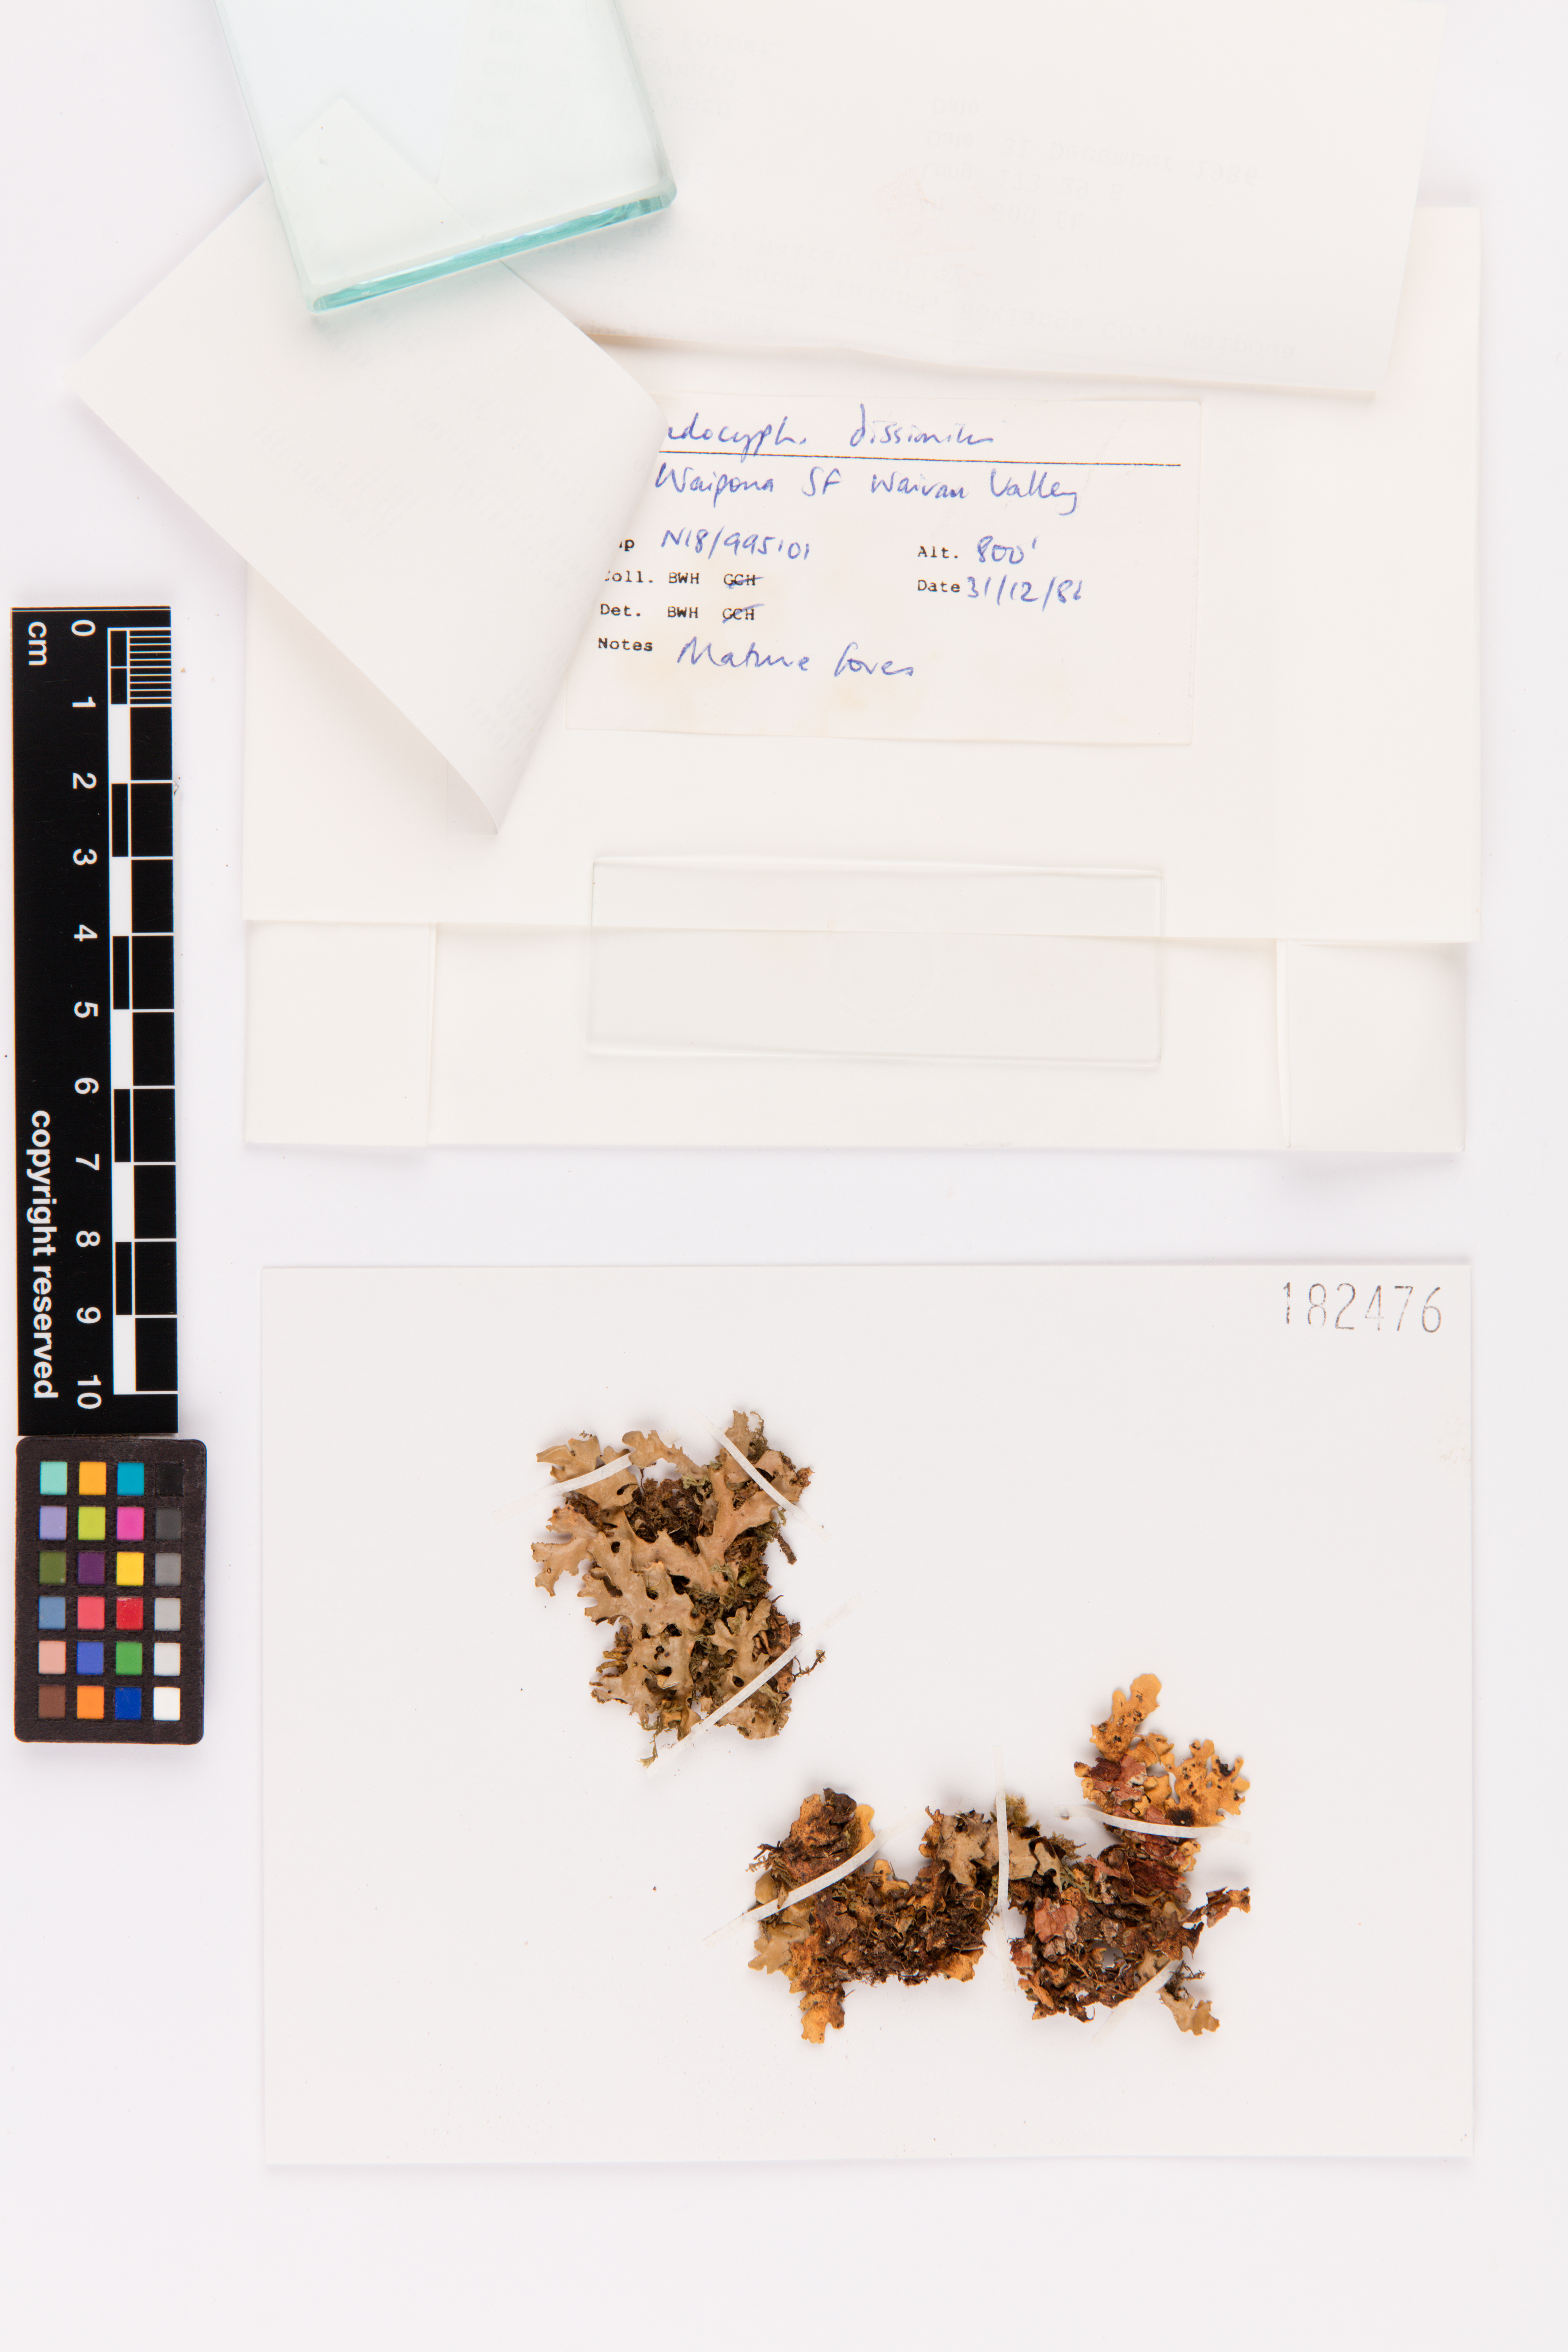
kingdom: Fungi
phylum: Ascomycota
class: Lecanoromycetes
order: Peltigerales
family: Lobariaceae
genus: Pseudocyphellaria
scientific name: Pseudocyphellaria dissimilis
